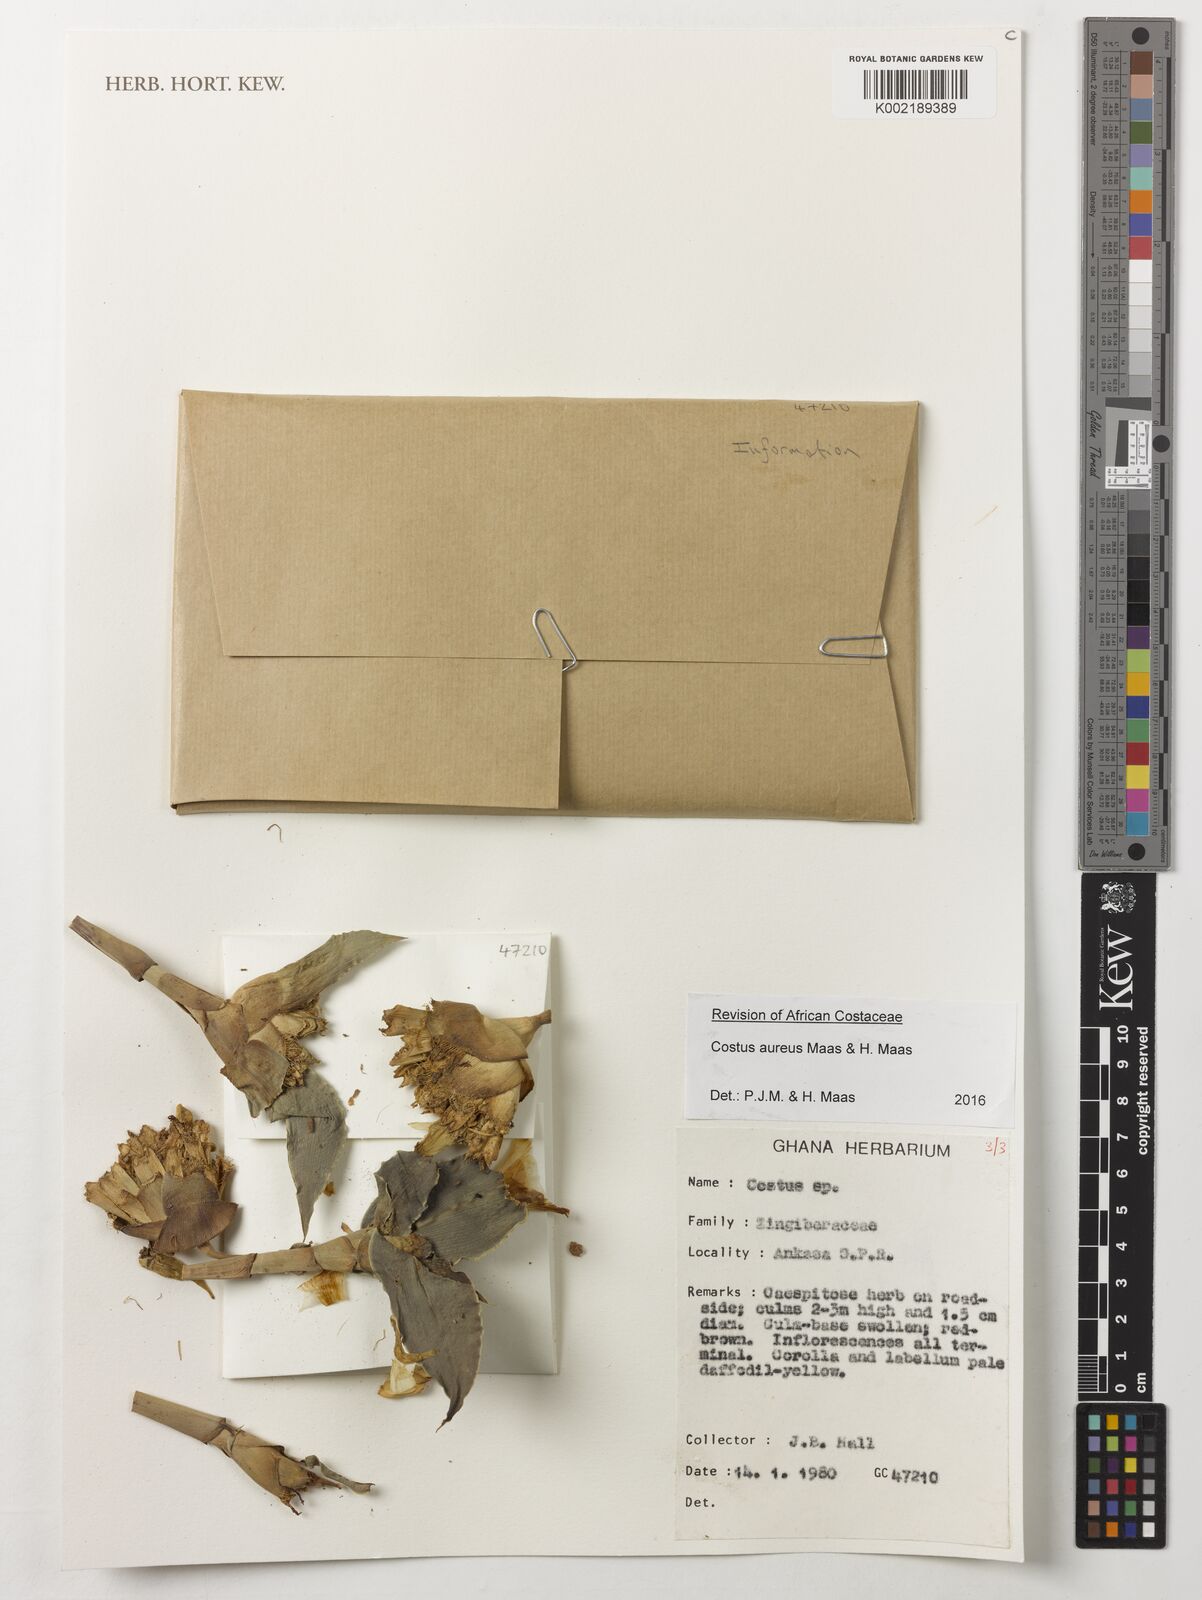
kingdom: Plantae
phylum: Tracheophyta
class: Liliopsida
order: Zingiberales
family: Costaceae
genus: Costus
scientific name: Costus aureus
